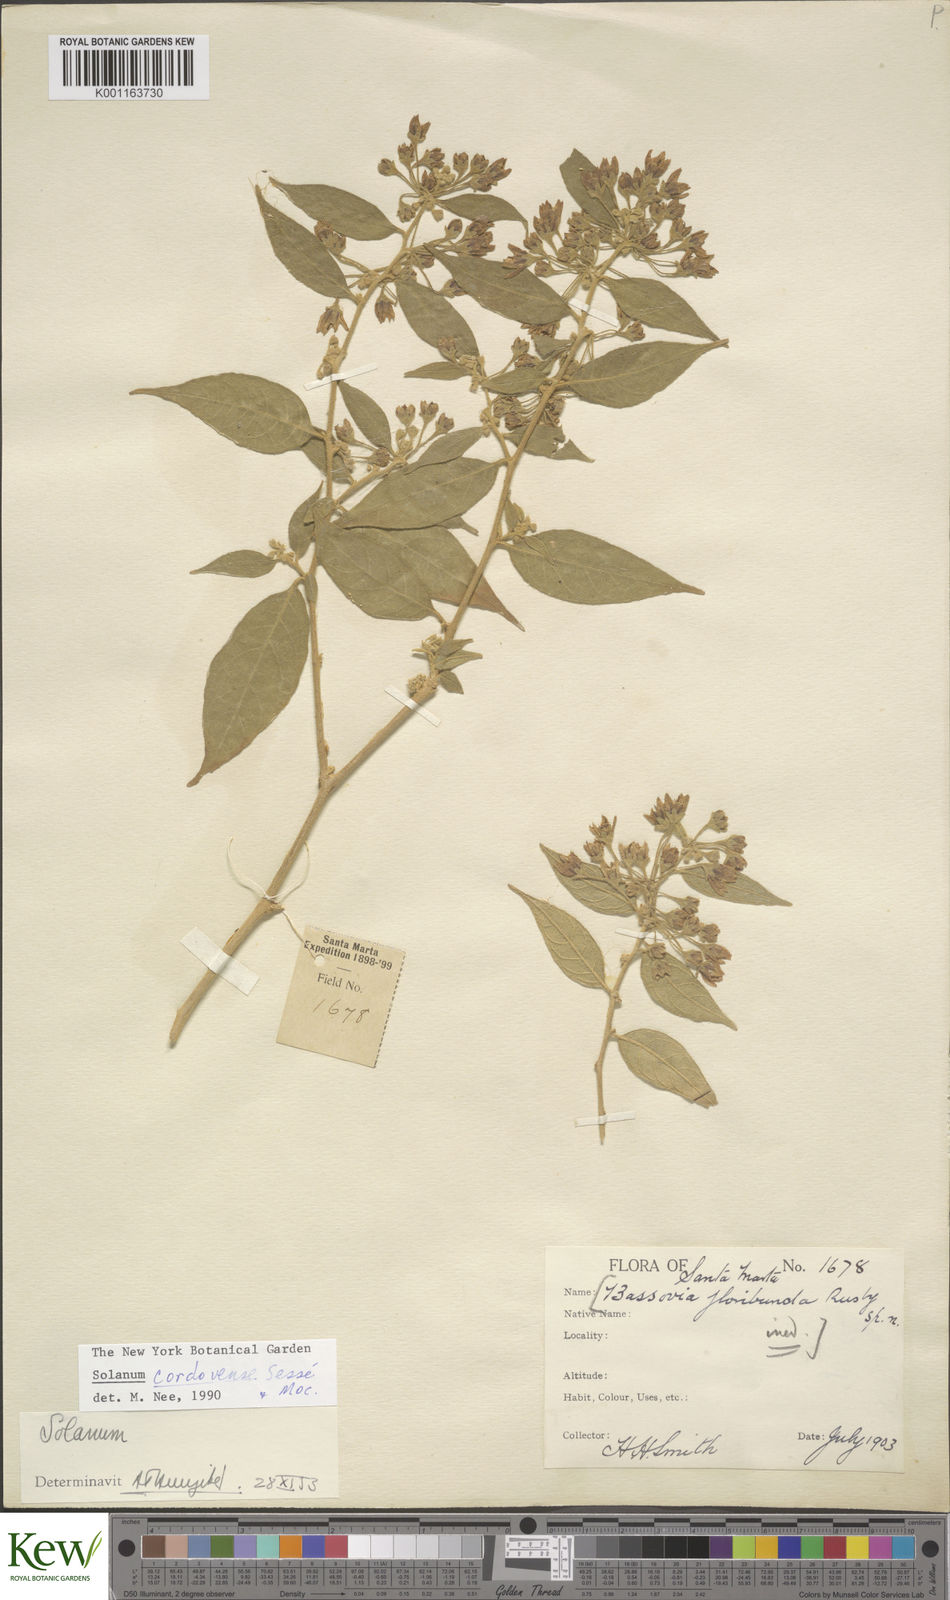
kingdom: Plantae
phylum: Tracheophyta
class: Magnoliopsida
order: Solanales
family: Solanaceae
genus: Solanum
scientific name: Solanum
